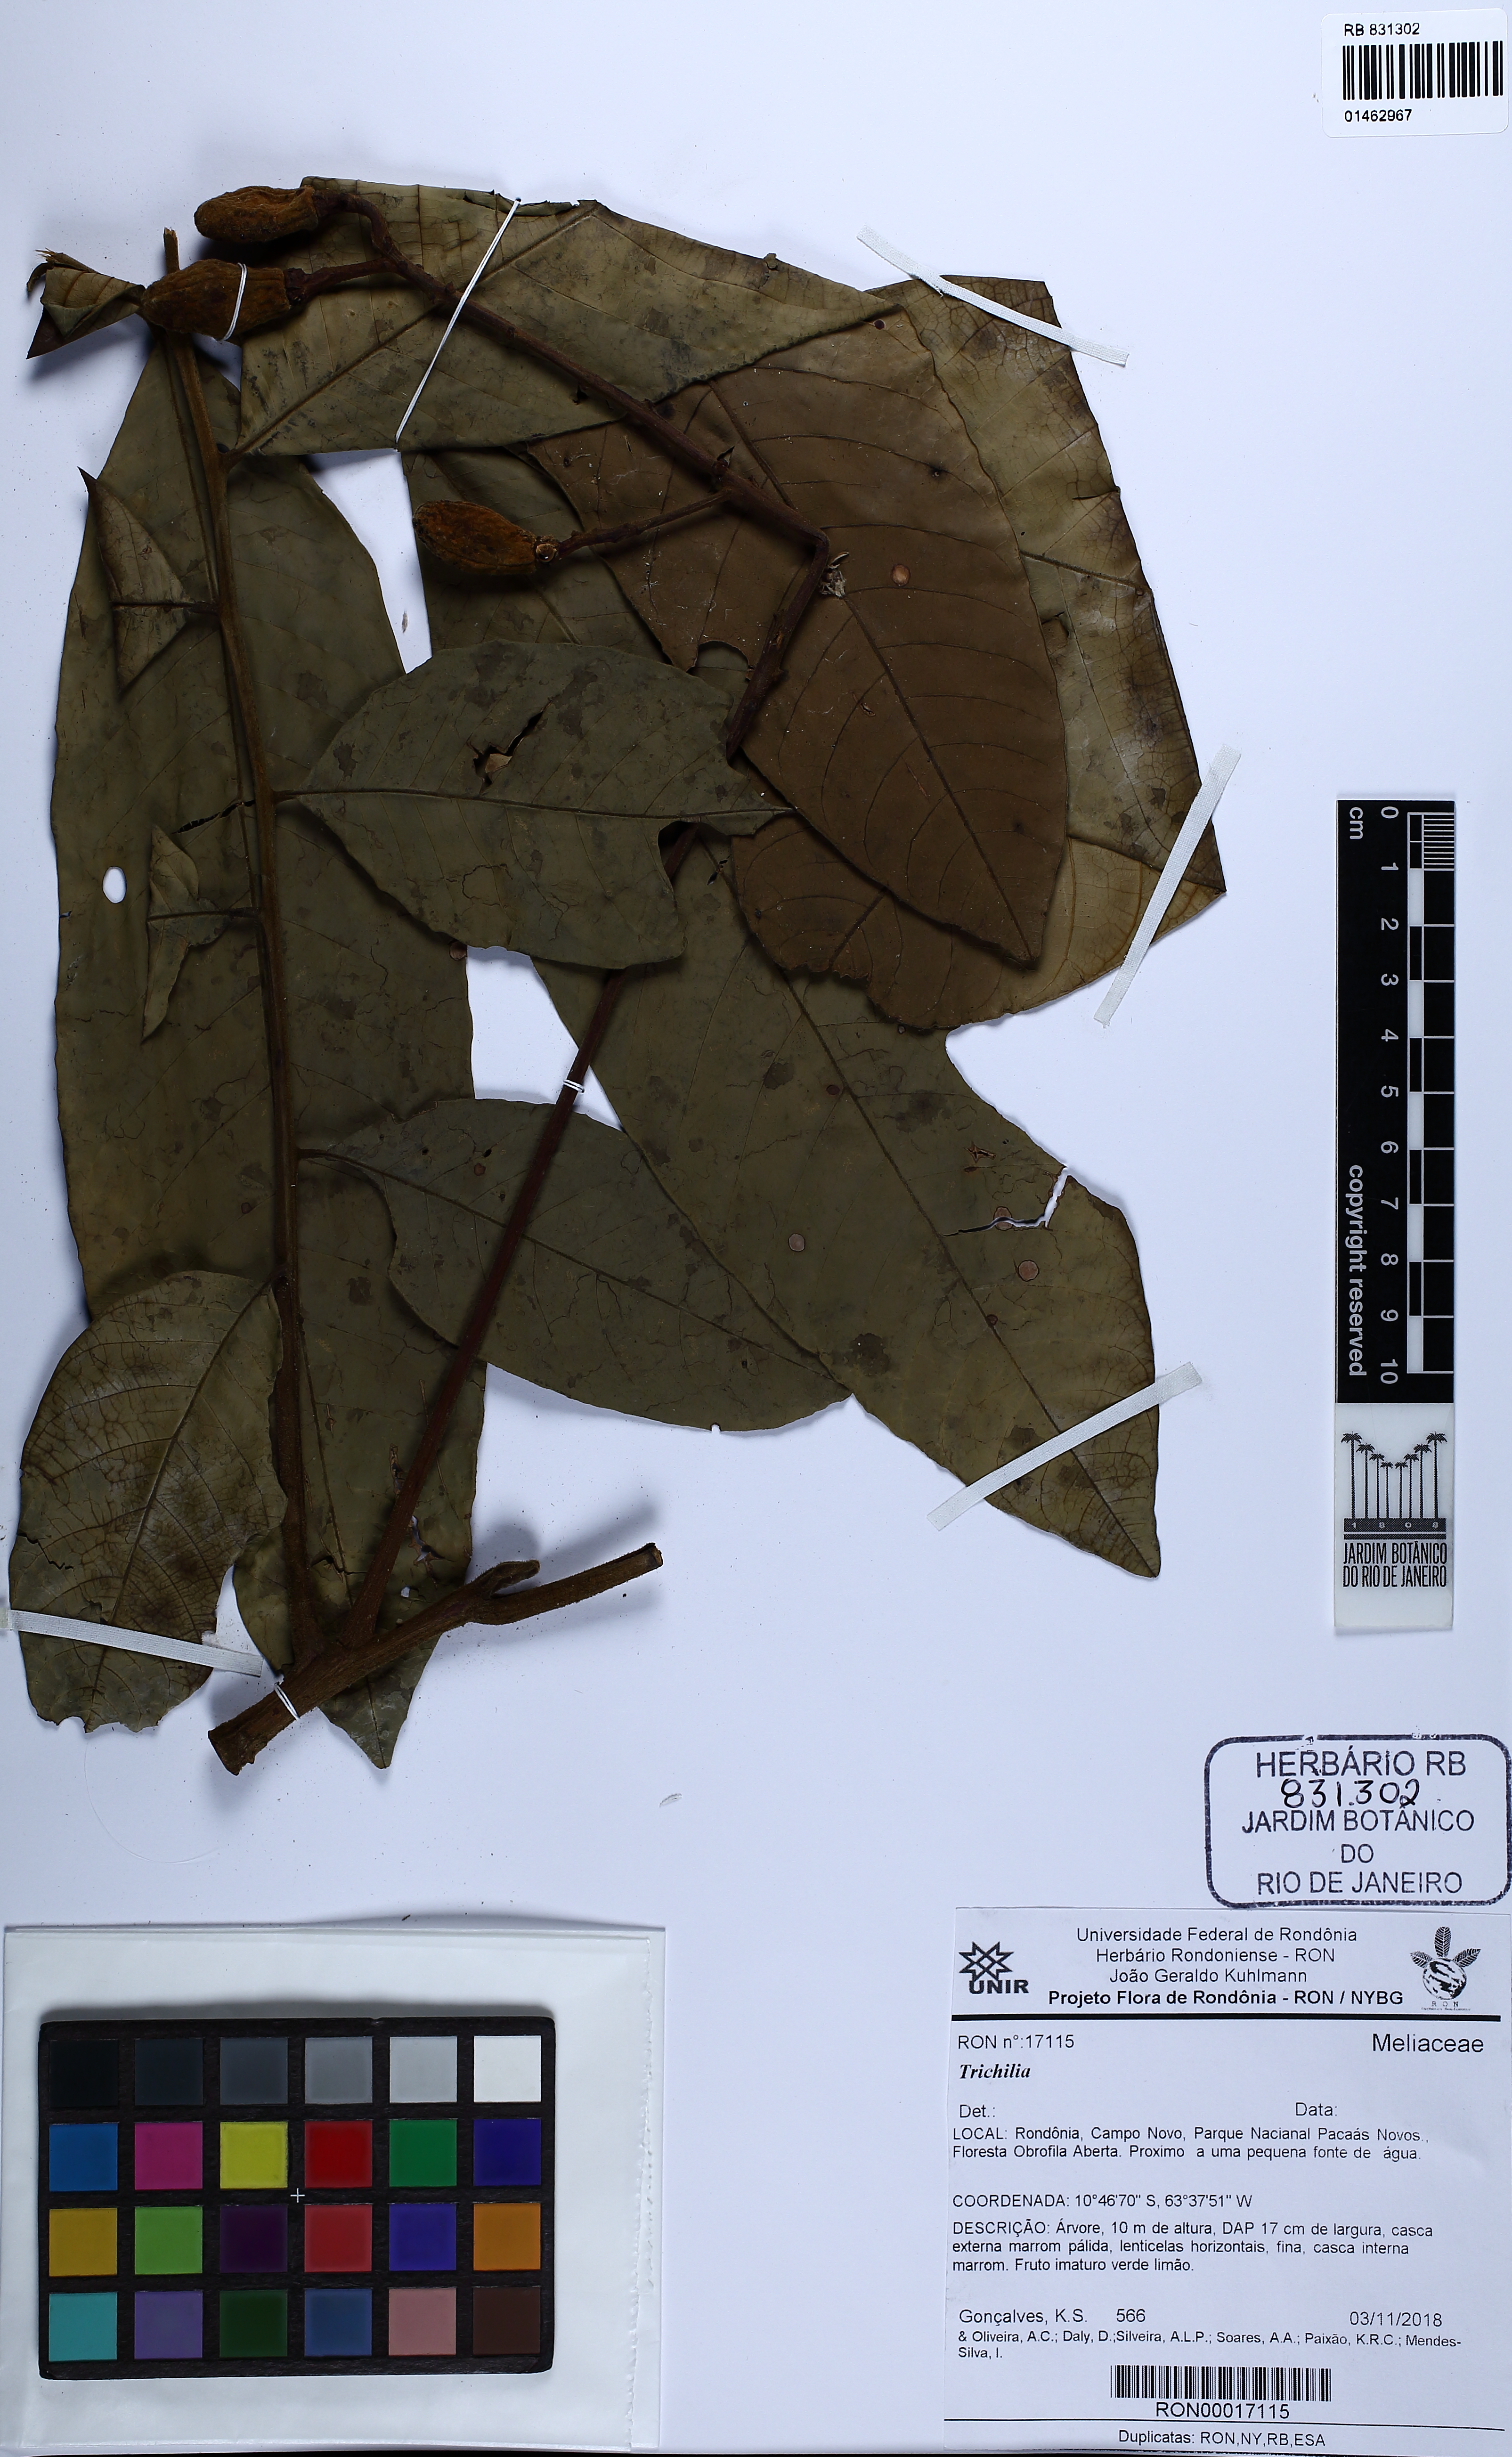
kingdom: Plantae
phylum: Tracheophyta
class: Magnoliopsida
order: Sapindales
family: Meliaceae
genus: Trichilia
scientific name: Trichilia
